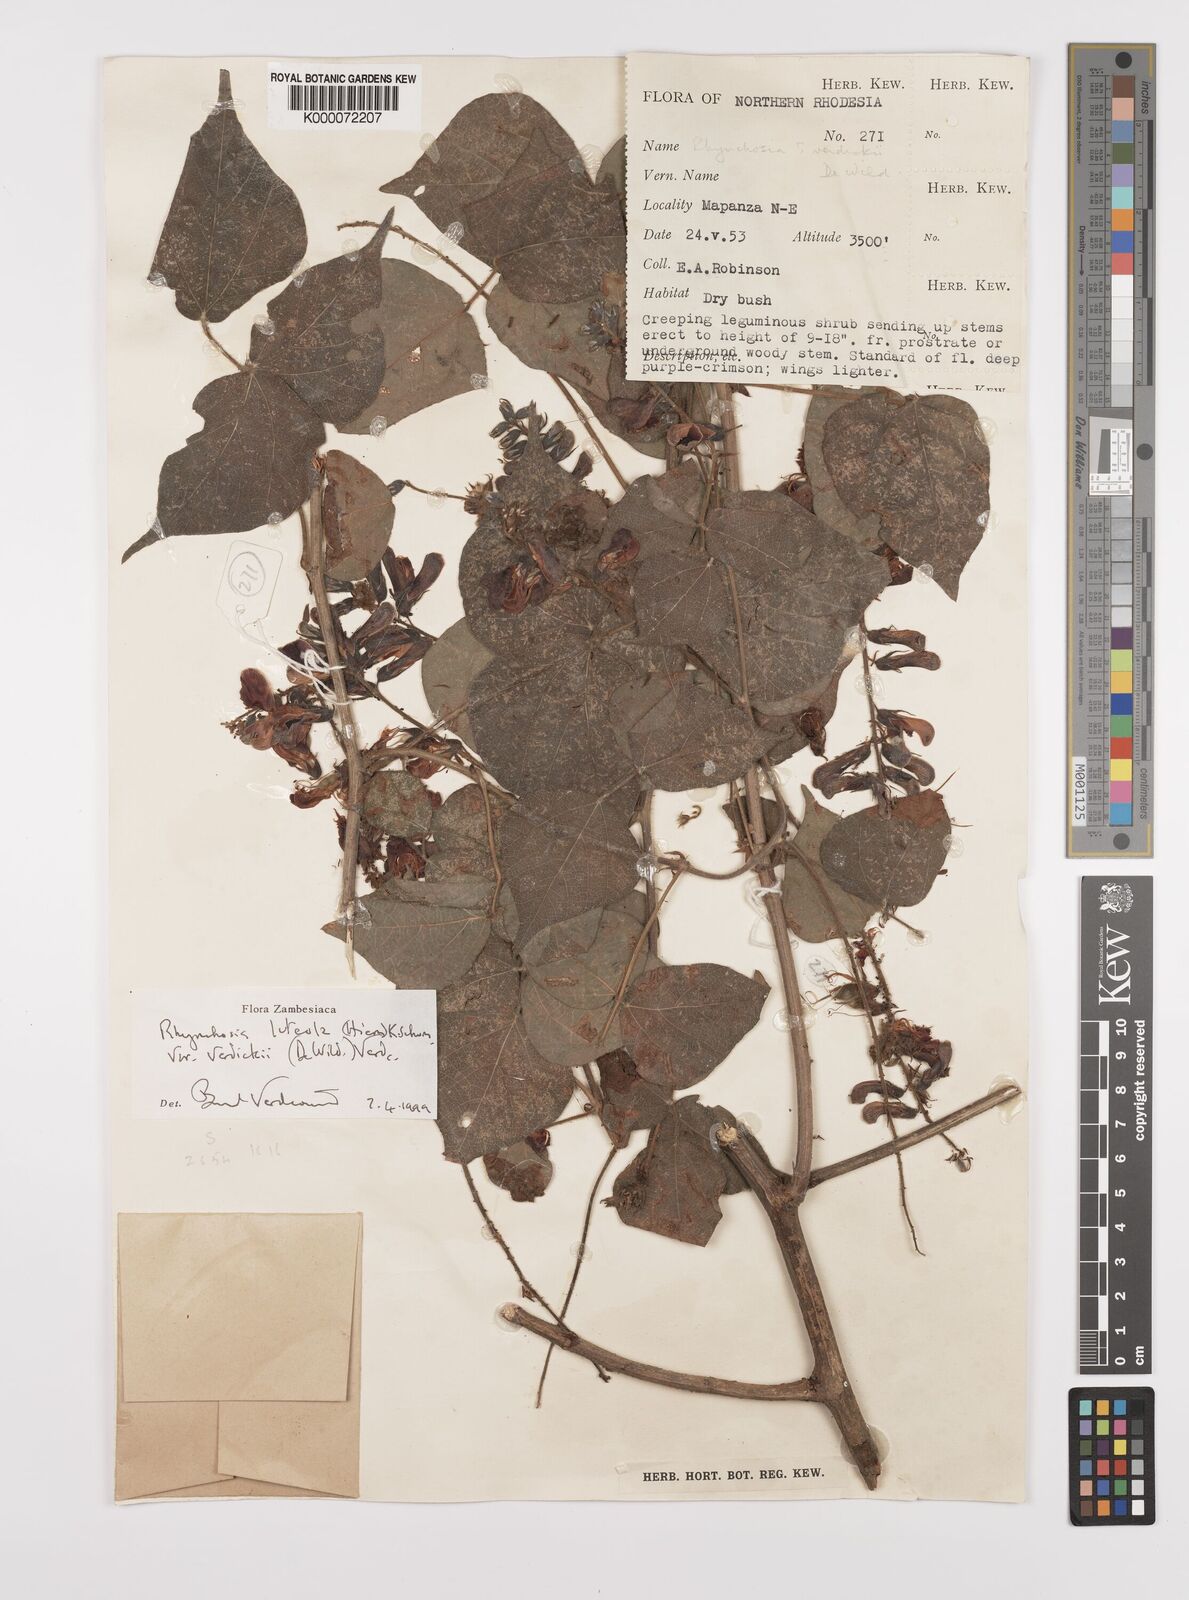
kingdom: Plantae
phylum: Tracheophyta
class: Magnoliopsida
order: Fabales
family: Fabaceae
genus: Rhynchosia
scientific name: Rhynchosia luteola
